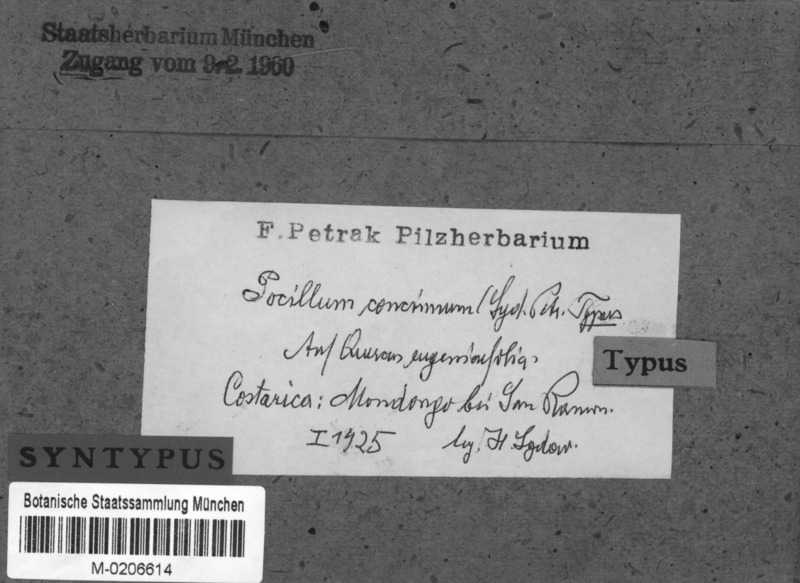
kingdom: Fungi
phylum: Ascomycota
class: Leotiomycetes
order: Helotiales
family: Vibrisseaceae
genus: Pocillum
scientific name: Pocillum concinnum
